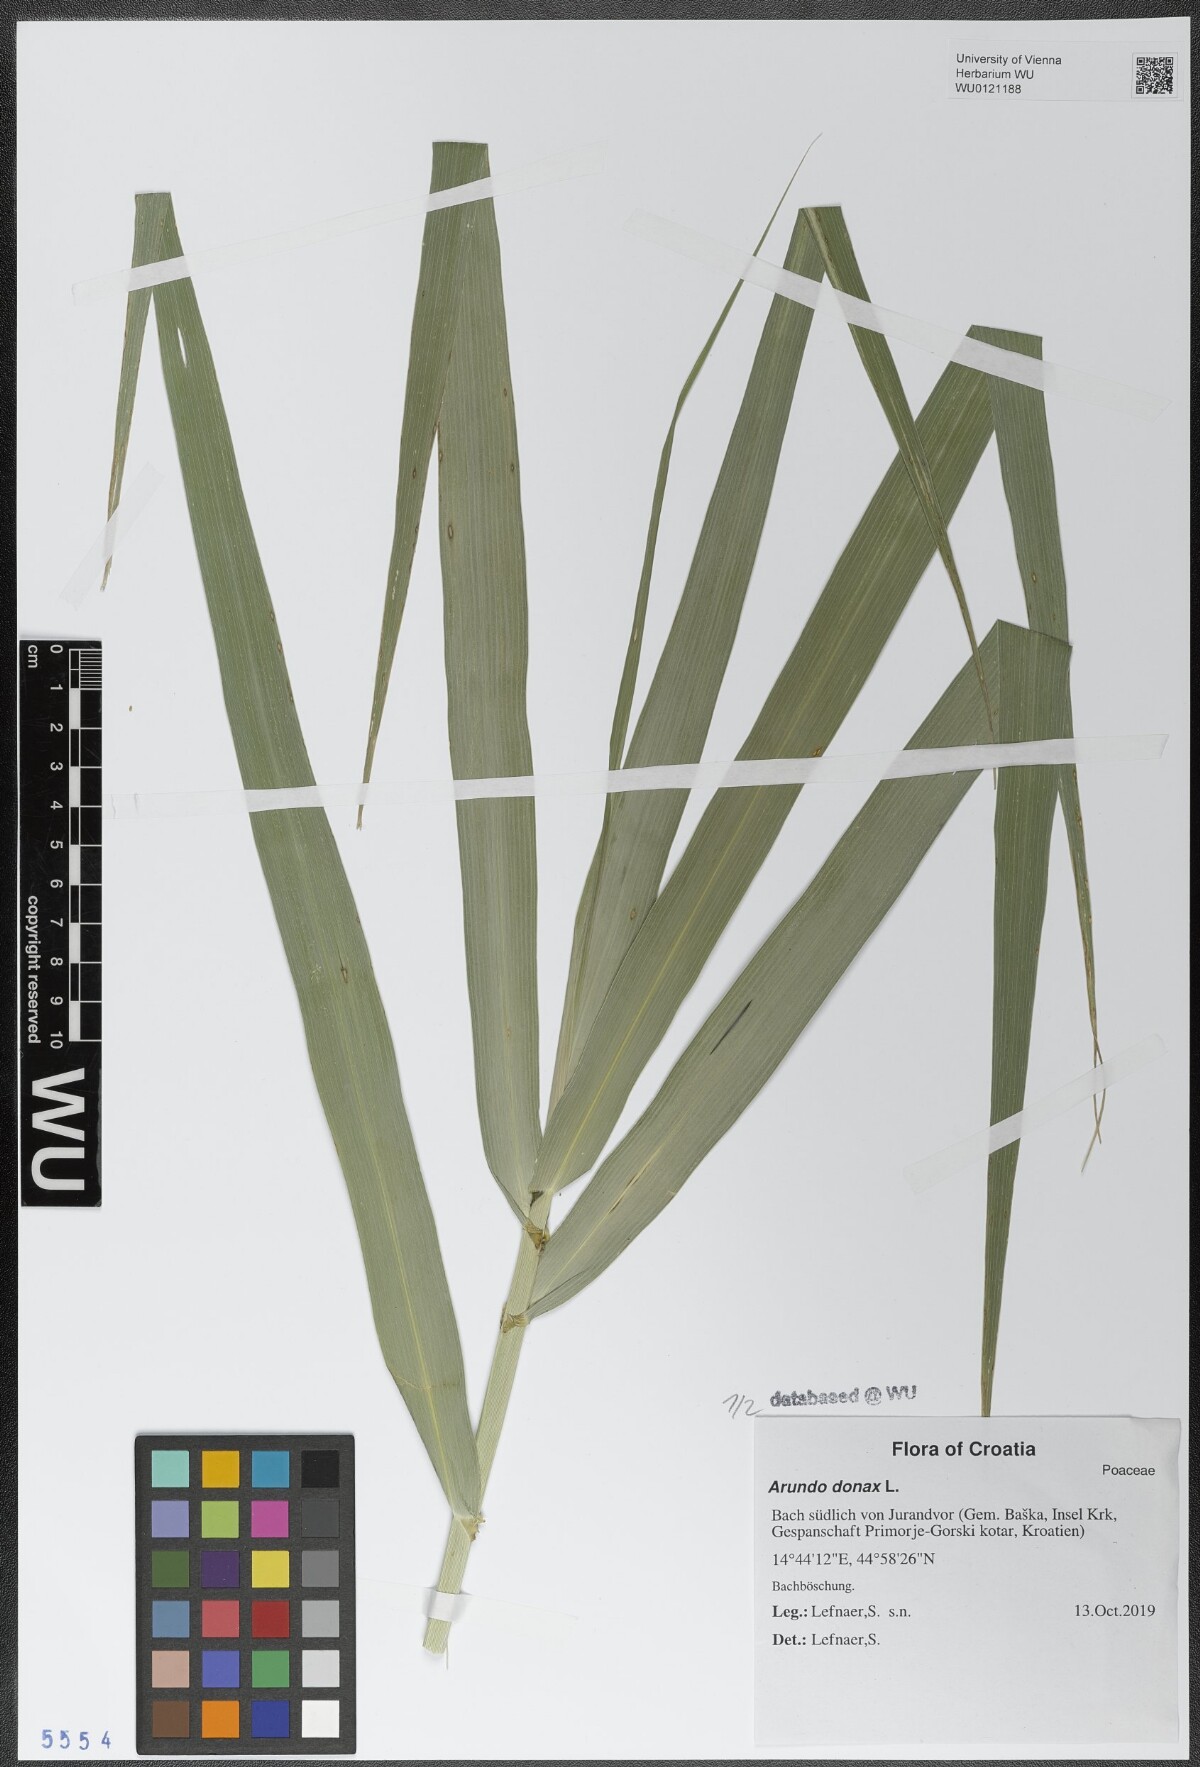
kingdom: Plantae
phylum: Tracheophyta
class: Liliopsida
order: Poales
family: Poaceae
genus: Arundo
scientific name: Arundo donax
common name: Giant reed
